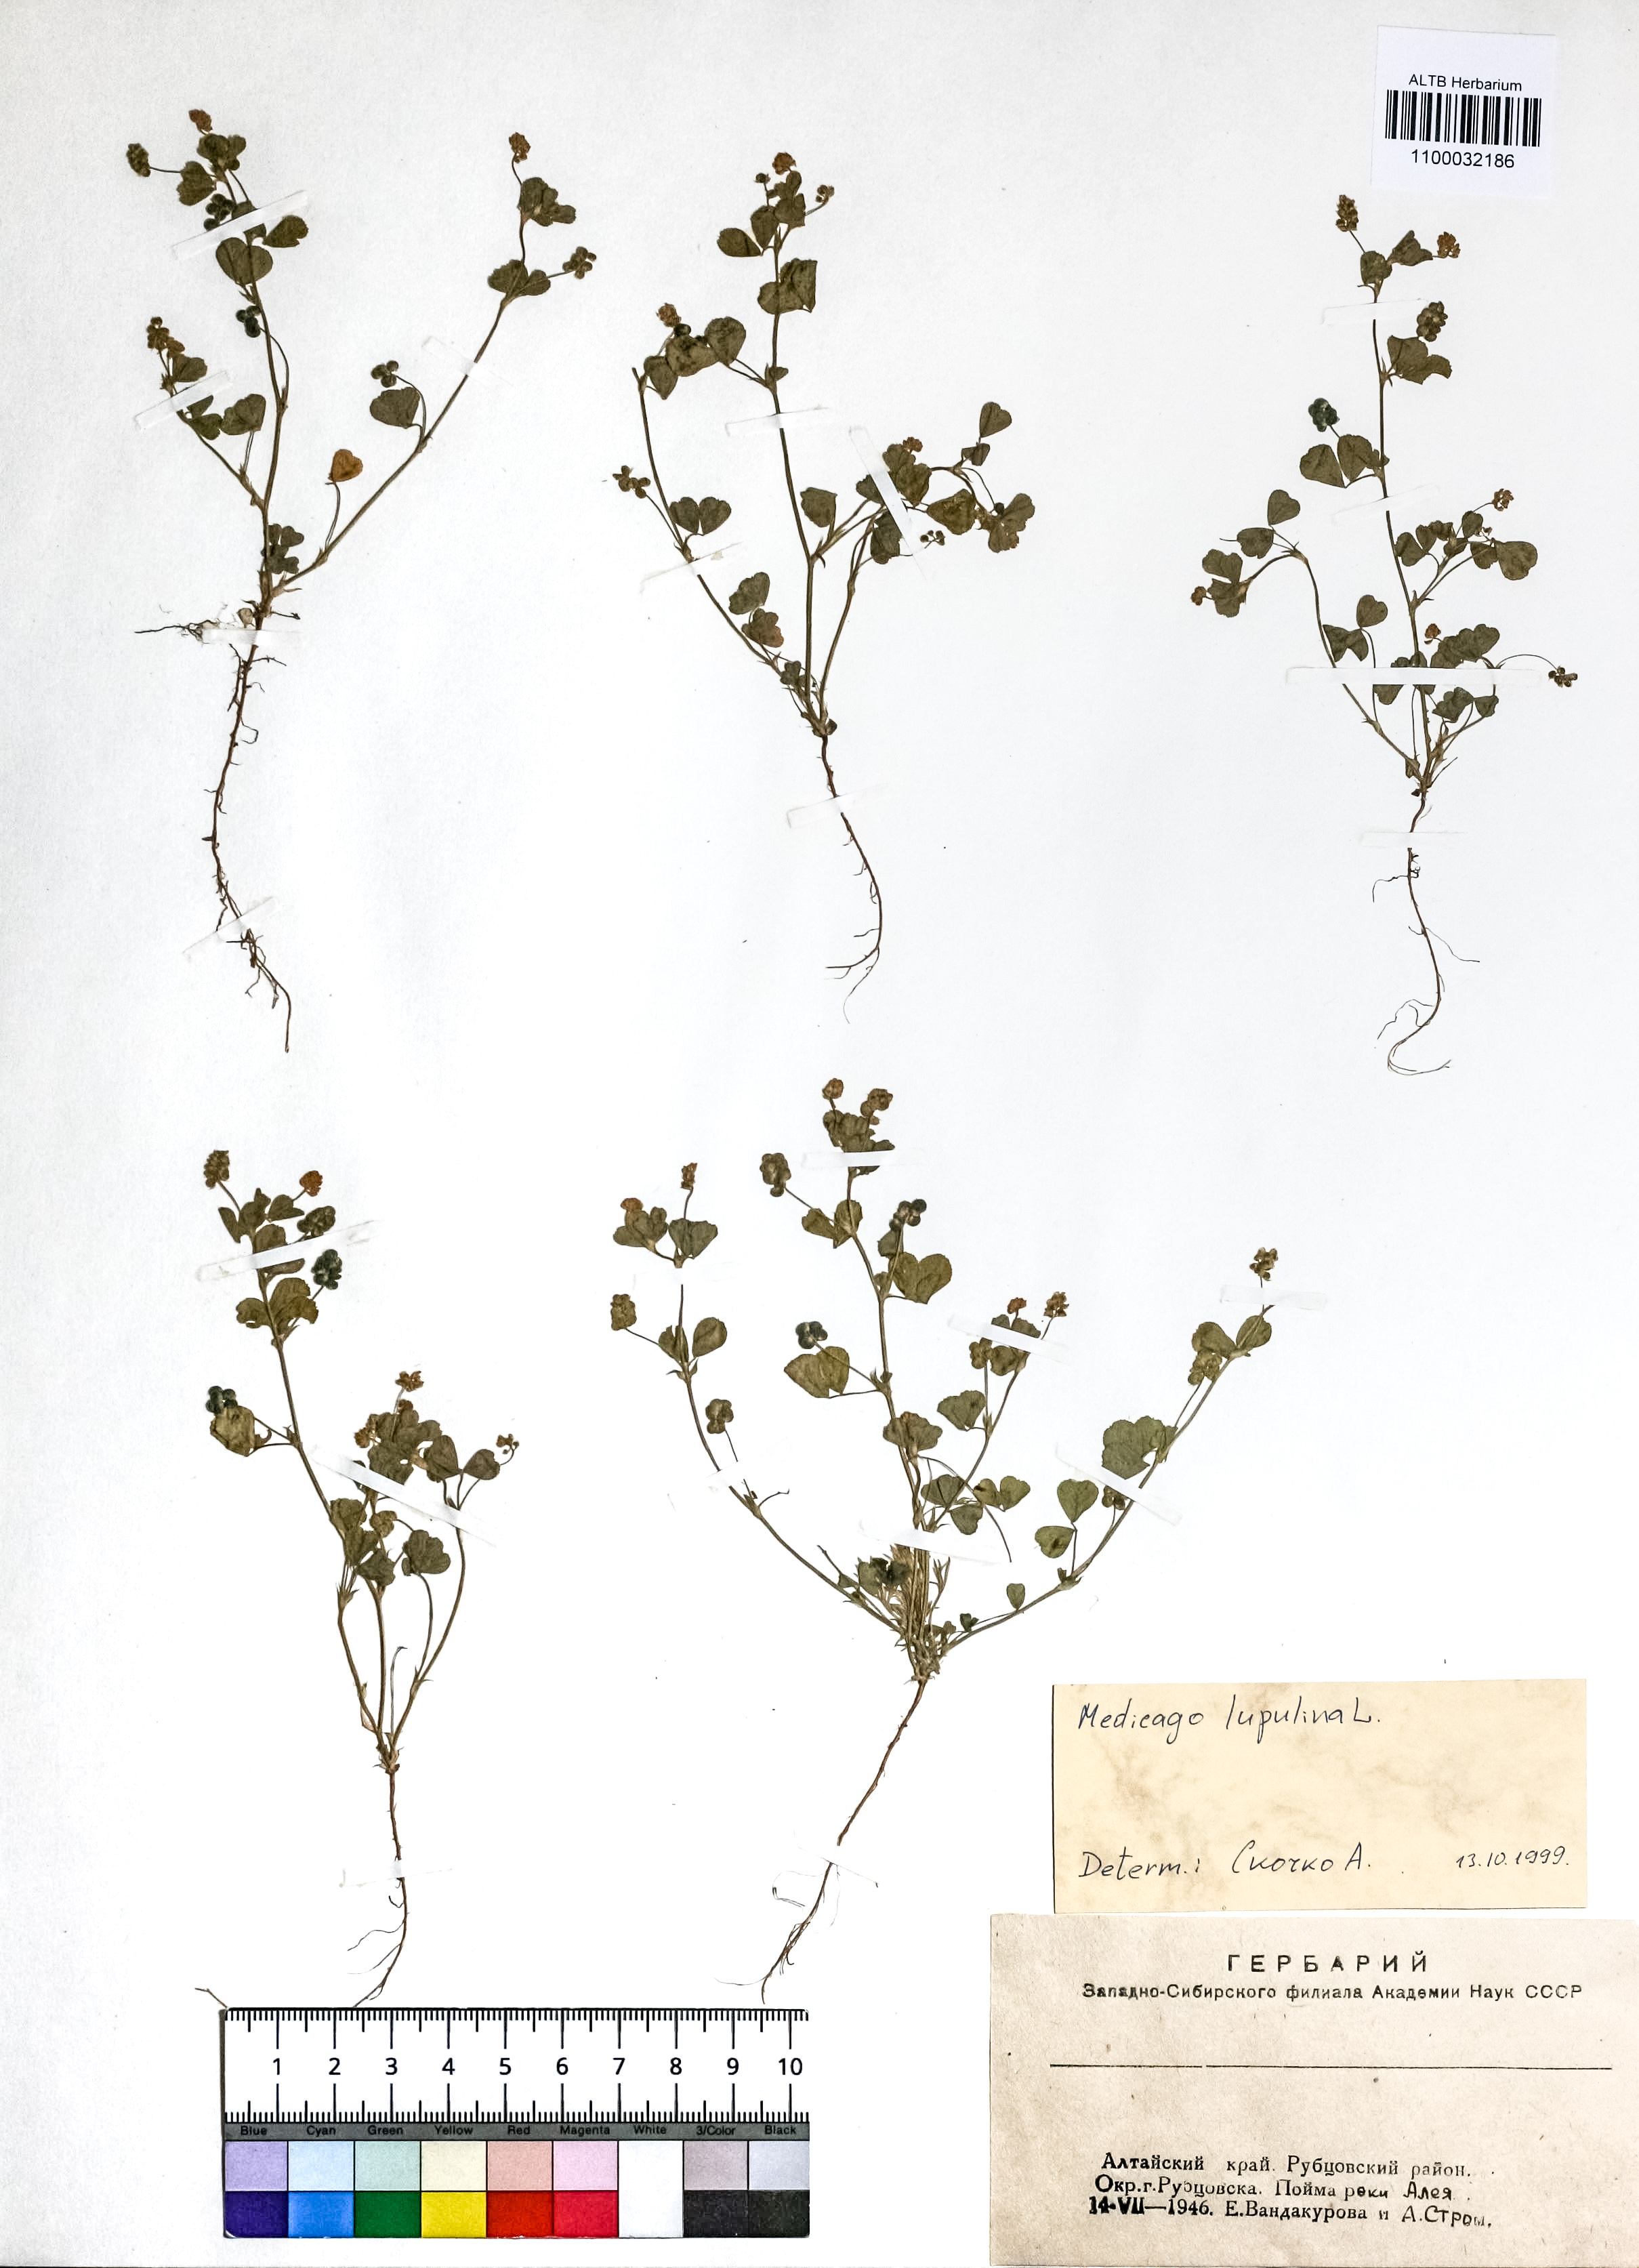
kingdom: Plantae
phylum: Tracheophyta
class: Magnoliopsida
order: Fabales
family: Fabaceae
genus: Medicago
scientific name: Medicago lupulina
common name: Black medick
